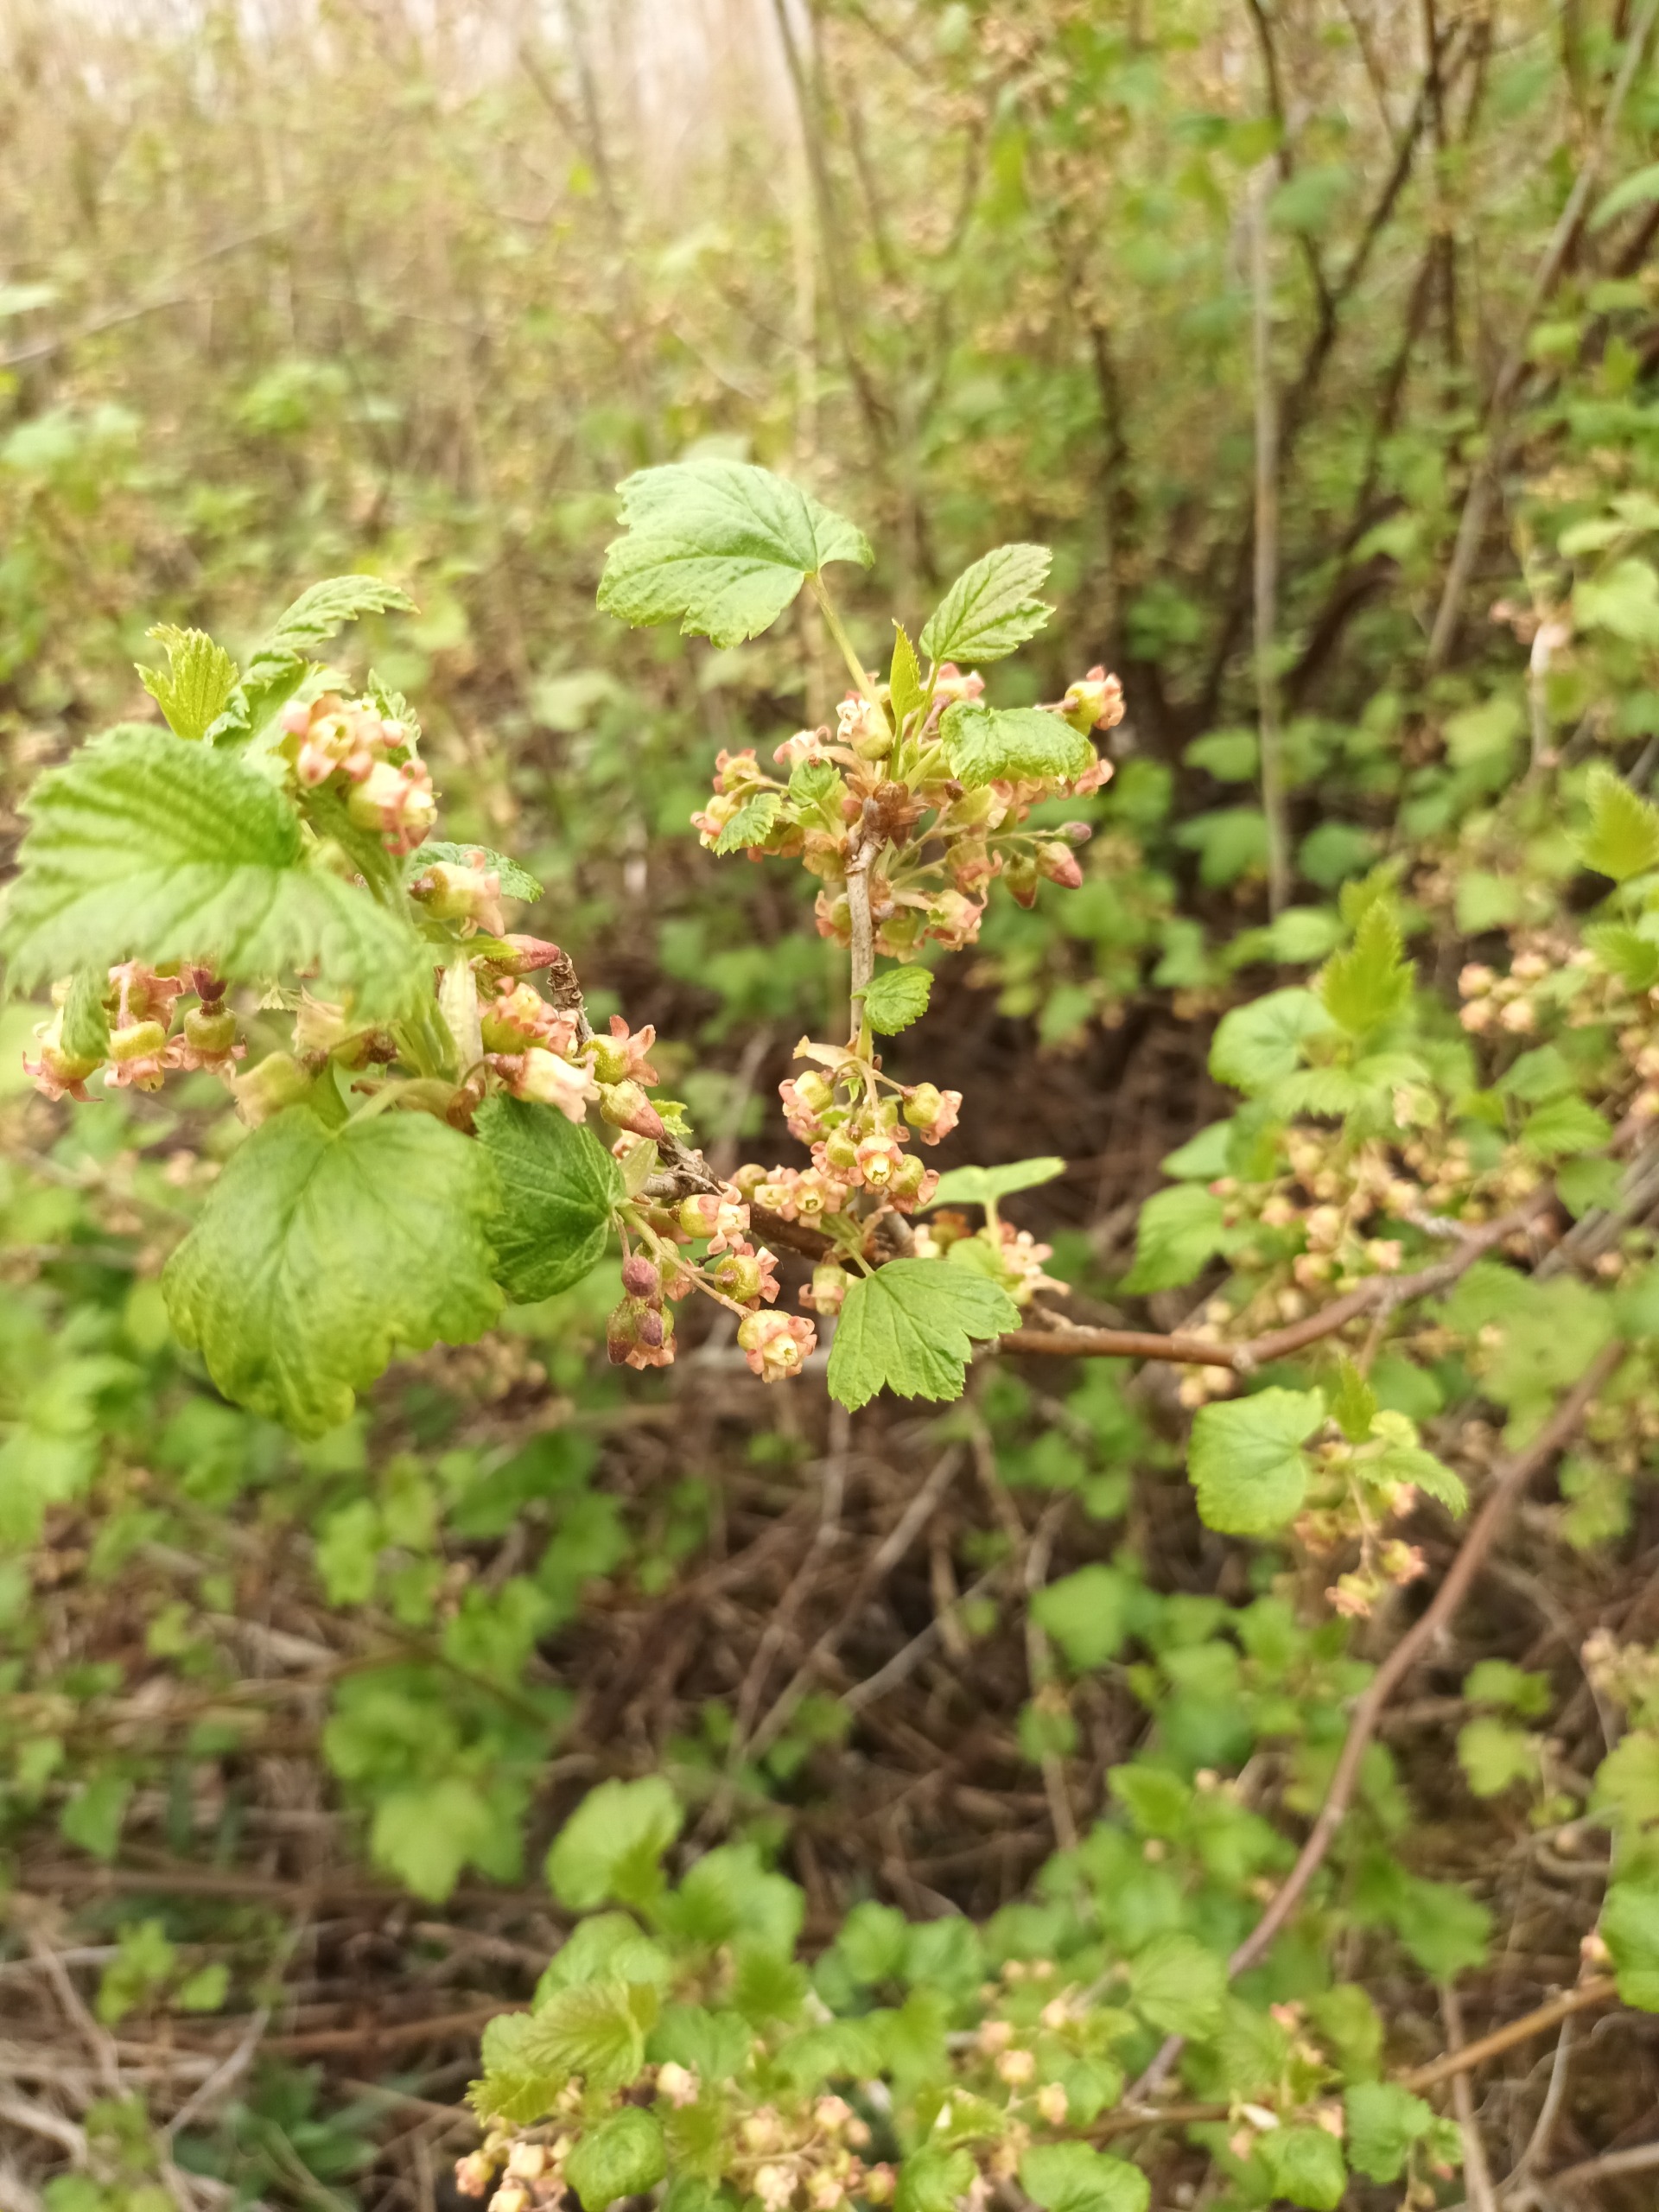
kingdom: Plantae
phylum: Tracheophyta
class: Magnoliopsida
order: Saxifragales
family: Grossulariaceae
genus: Ribes
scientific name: Ribes nigrum
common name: Solbær
